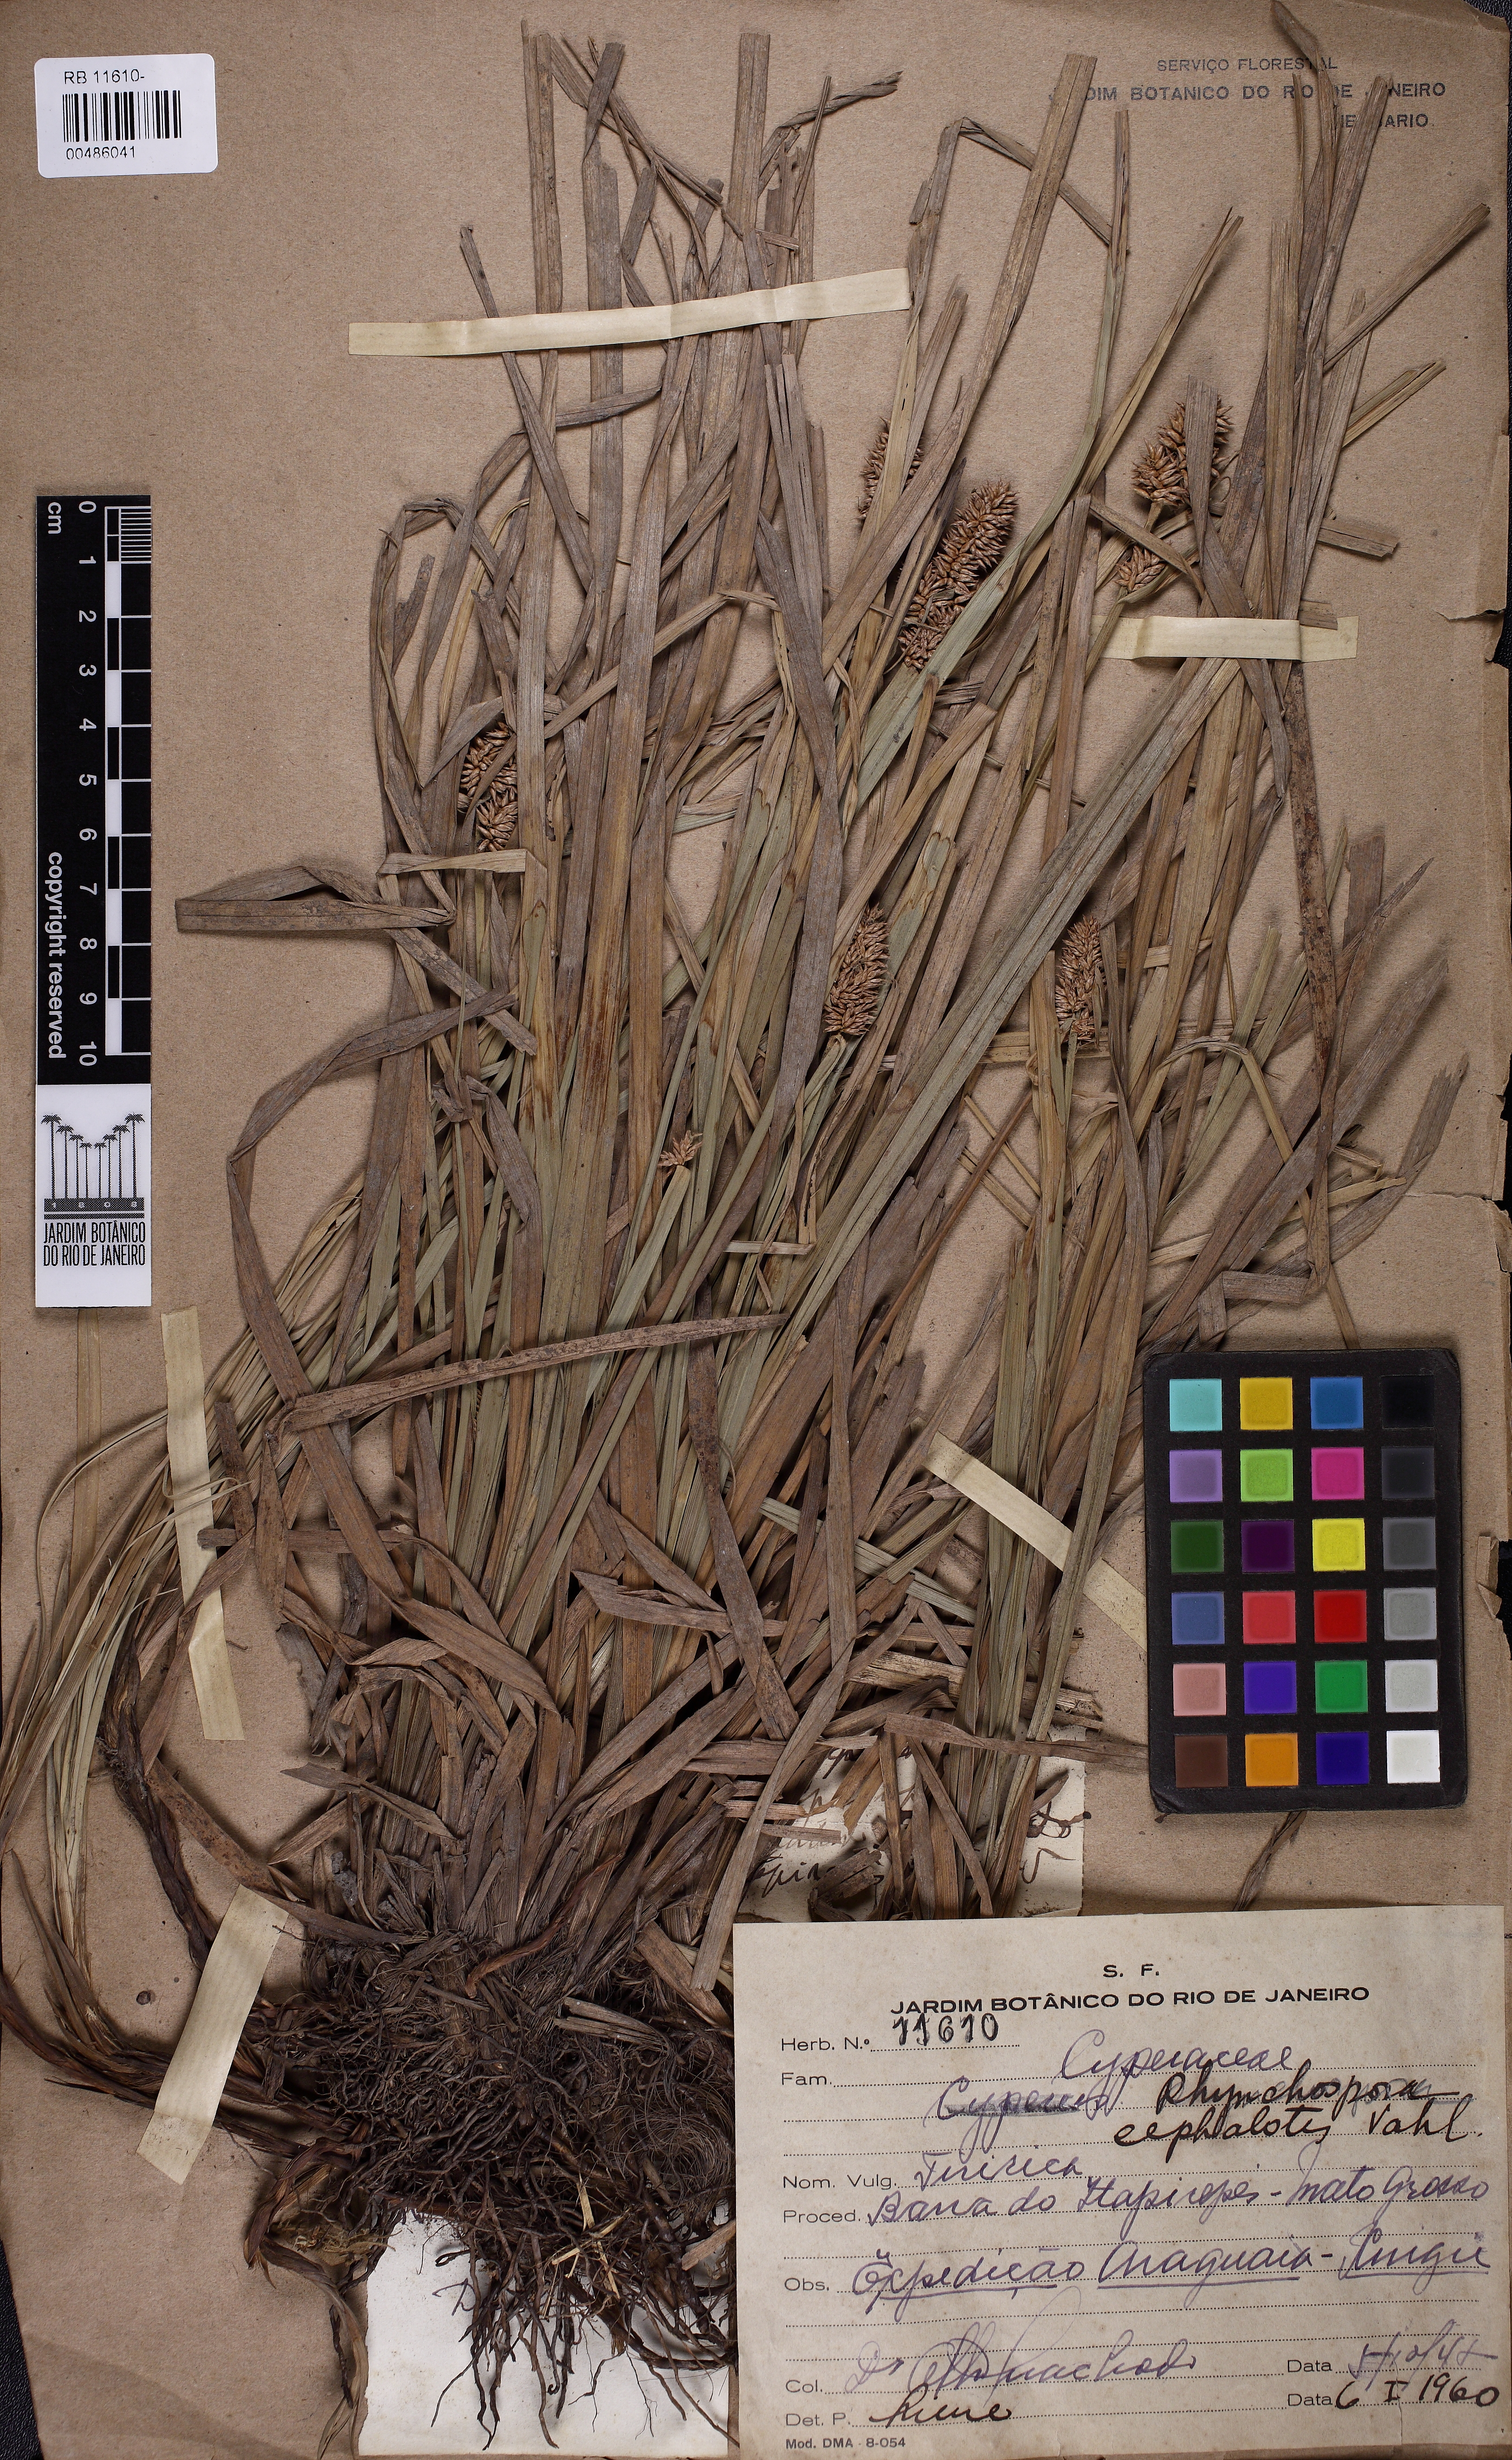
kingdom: Plantae
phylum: Tracheophyta
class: Liliopsida
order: Poales
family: Cyperaceae
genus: Rhynchospora
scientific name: Rhynchospora cephalotes
